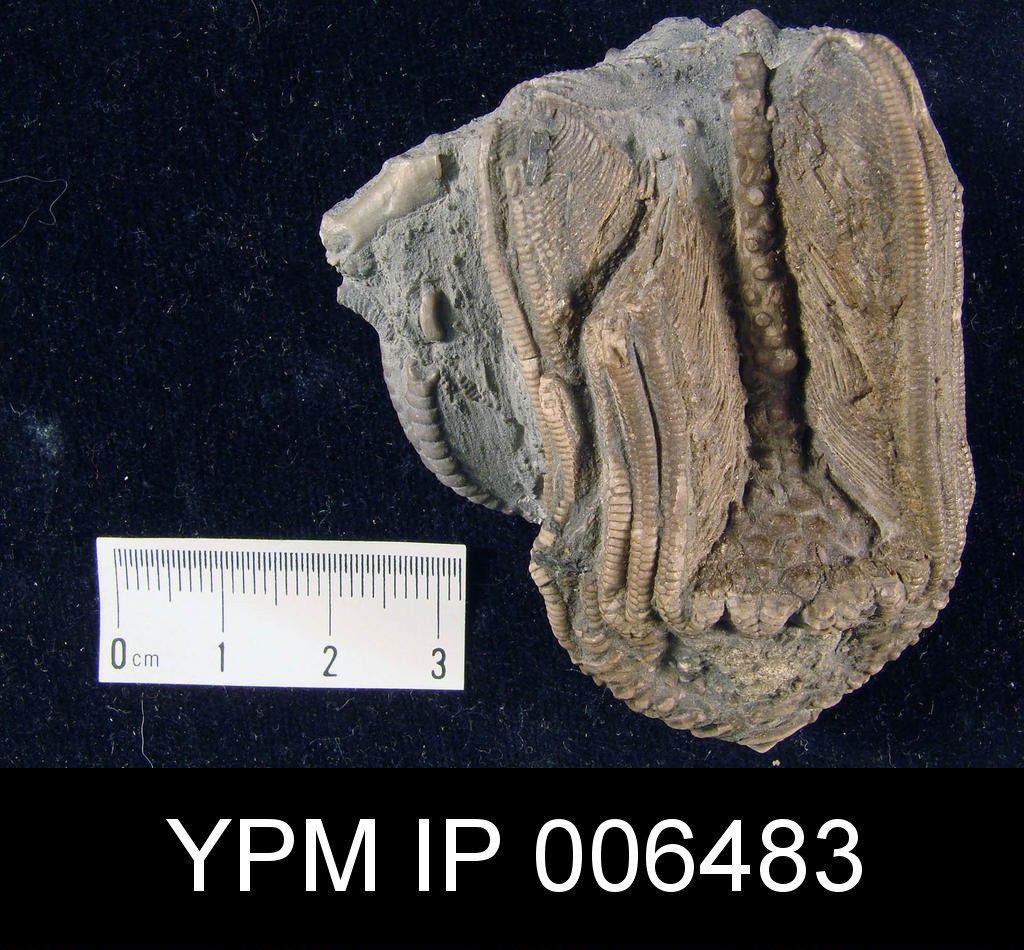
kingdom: Animalia
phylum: Echinodermata
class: Crinoidea
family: Batocrinidae
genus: Batocrinus
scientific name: Batocrinus
